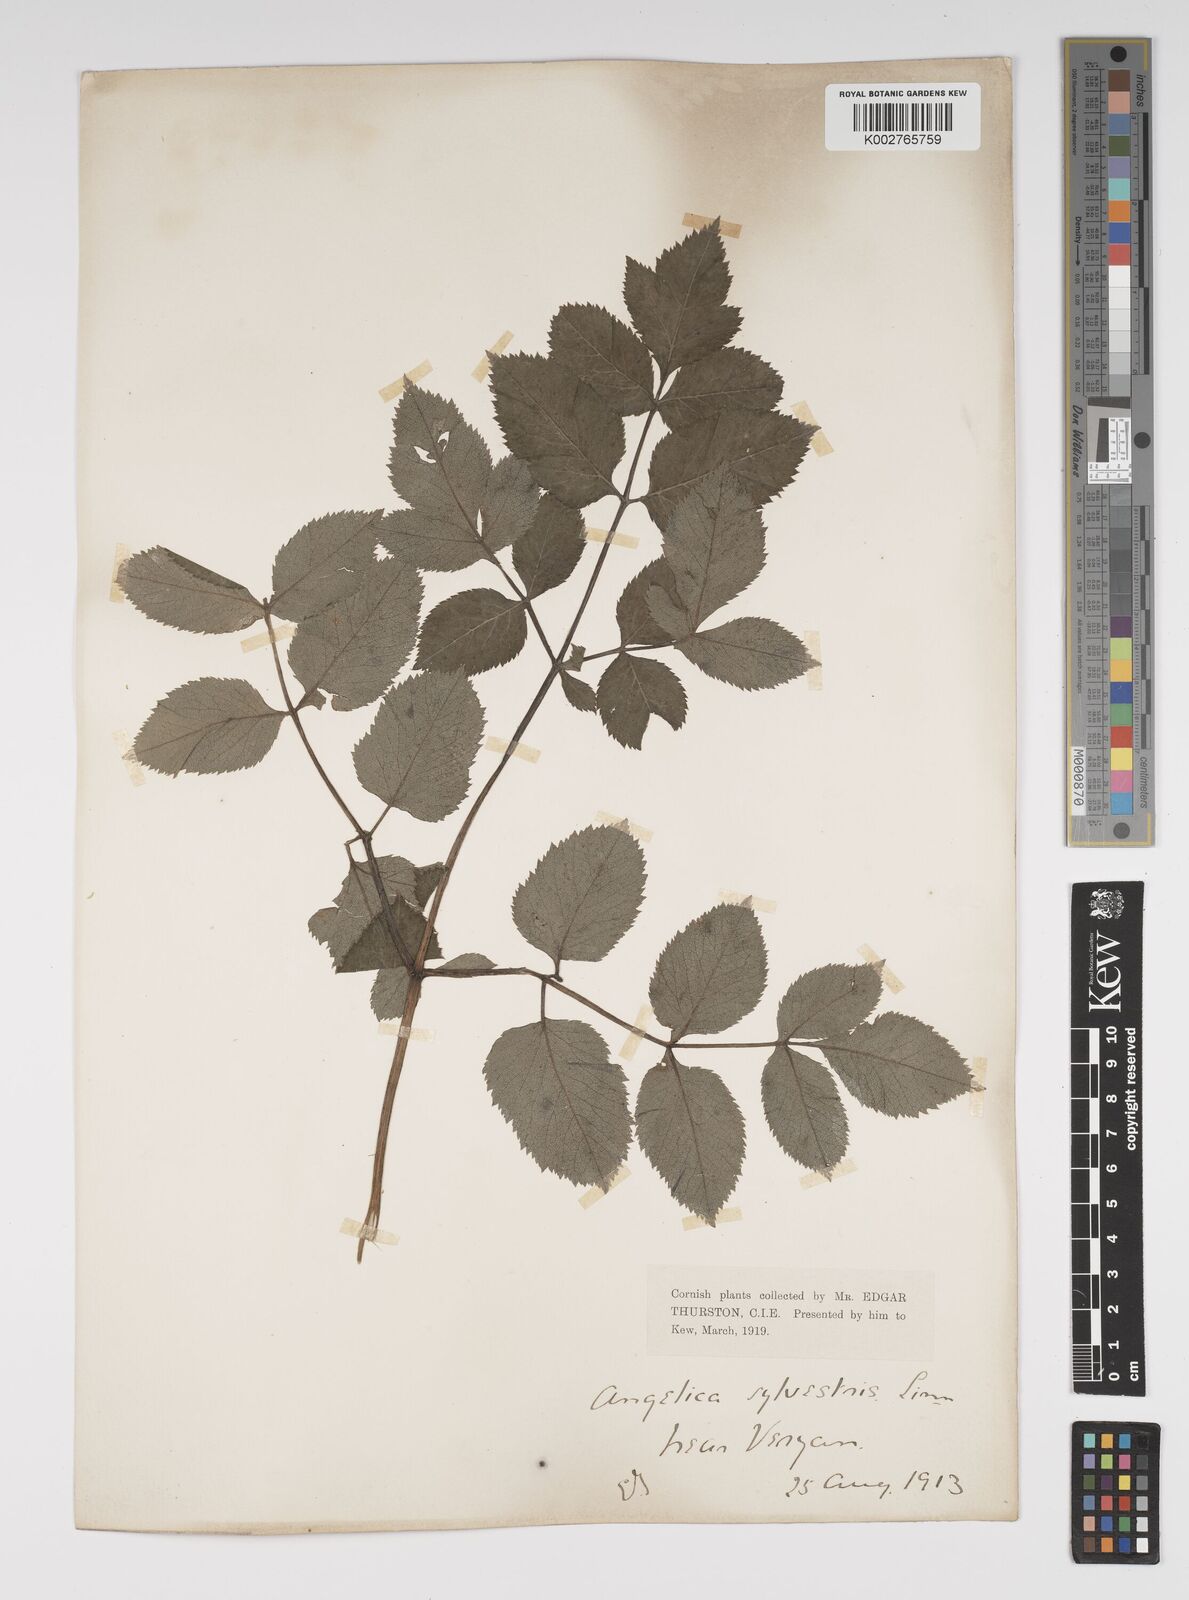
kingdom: Plantae
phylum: Tracheophyta
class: Magnoliopsida
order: Apiales
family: Apiaceae
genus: Angelica
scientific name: Angelica sylvestris
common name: Wild angelica
